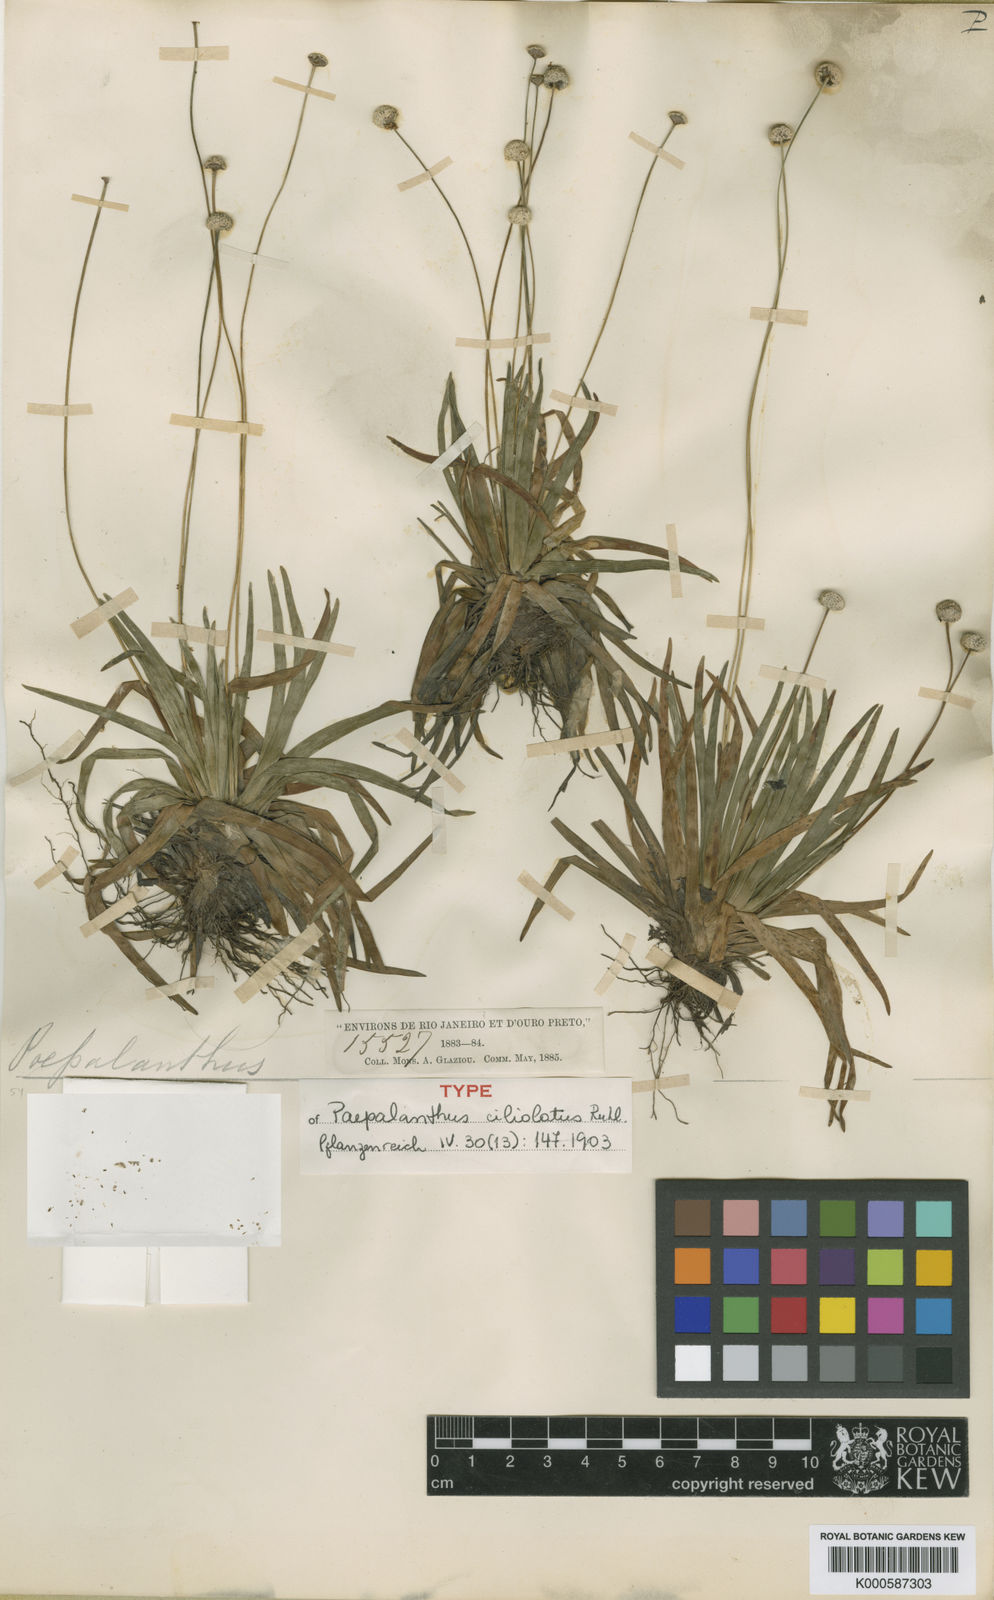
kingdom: Plantae
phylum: Tracheophyta
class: Liliopsida
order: Poales
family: Eriocaulaceae
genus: Paepalanthus
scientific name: Paepalanthus ciliolatus
